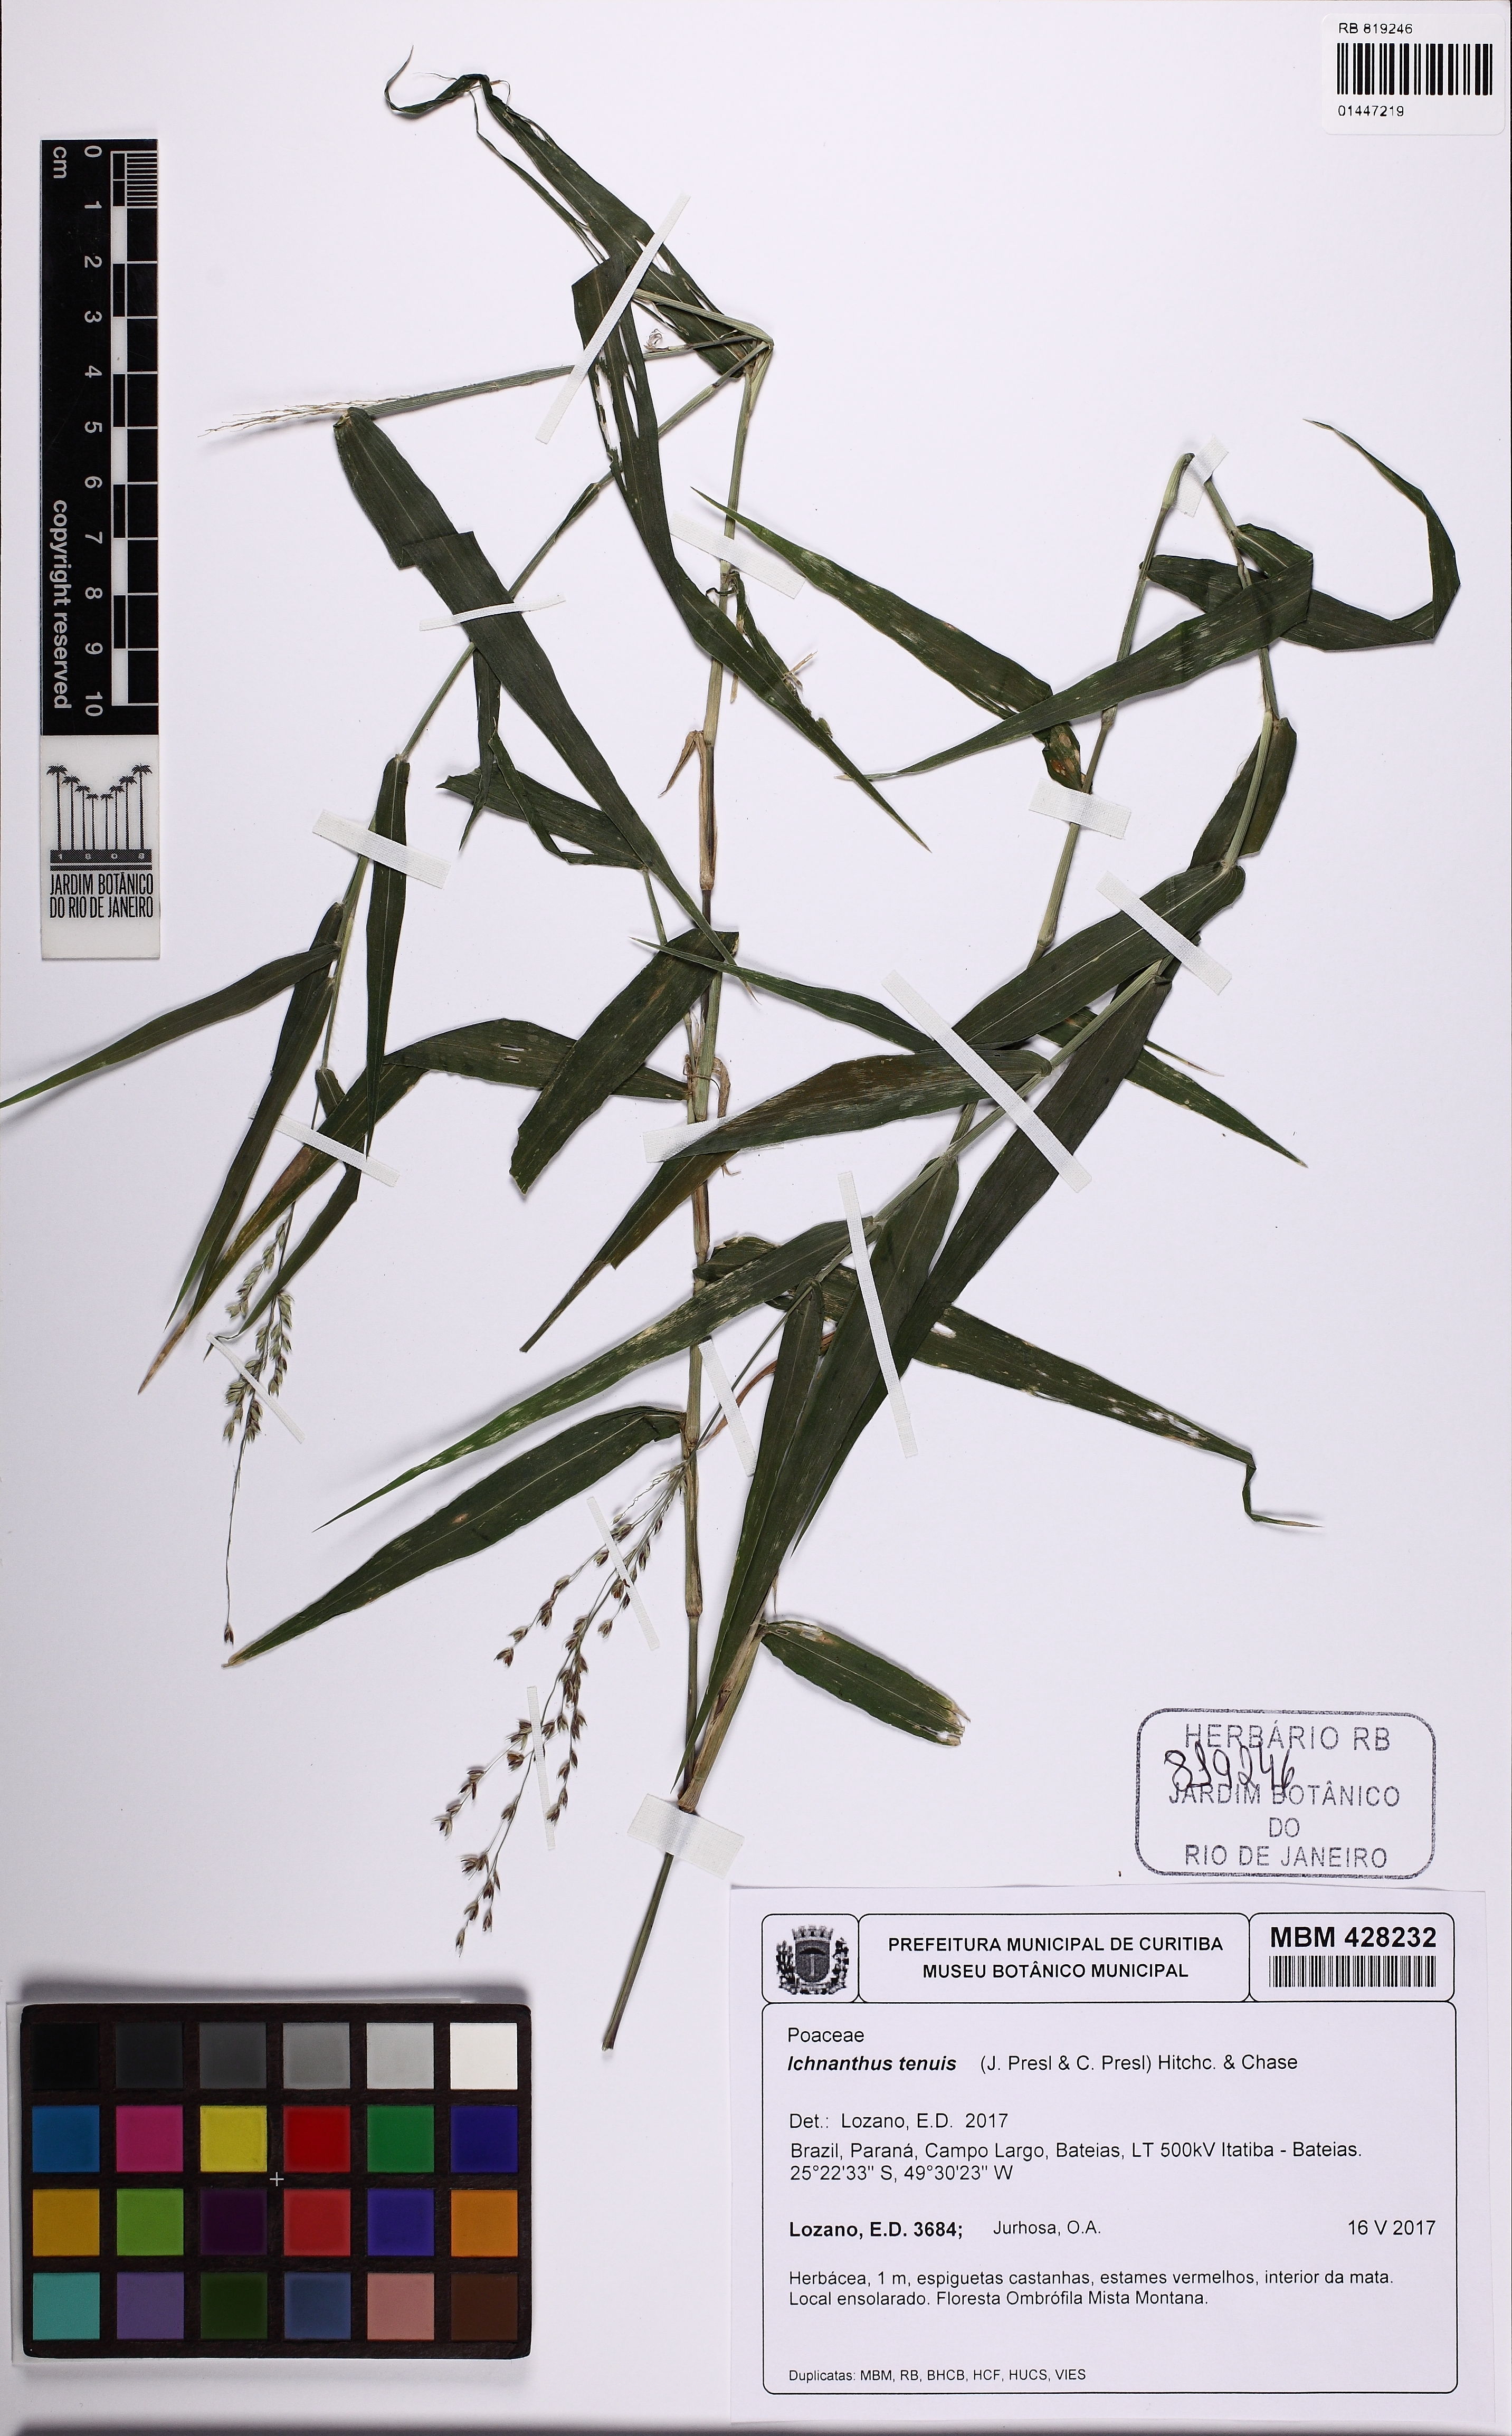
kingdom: Plantae
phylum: Tracheophyta
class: Liliopsida
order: Poales
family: Poaceae
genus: Ichnanthus
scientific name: Ichnanthus tenuis
